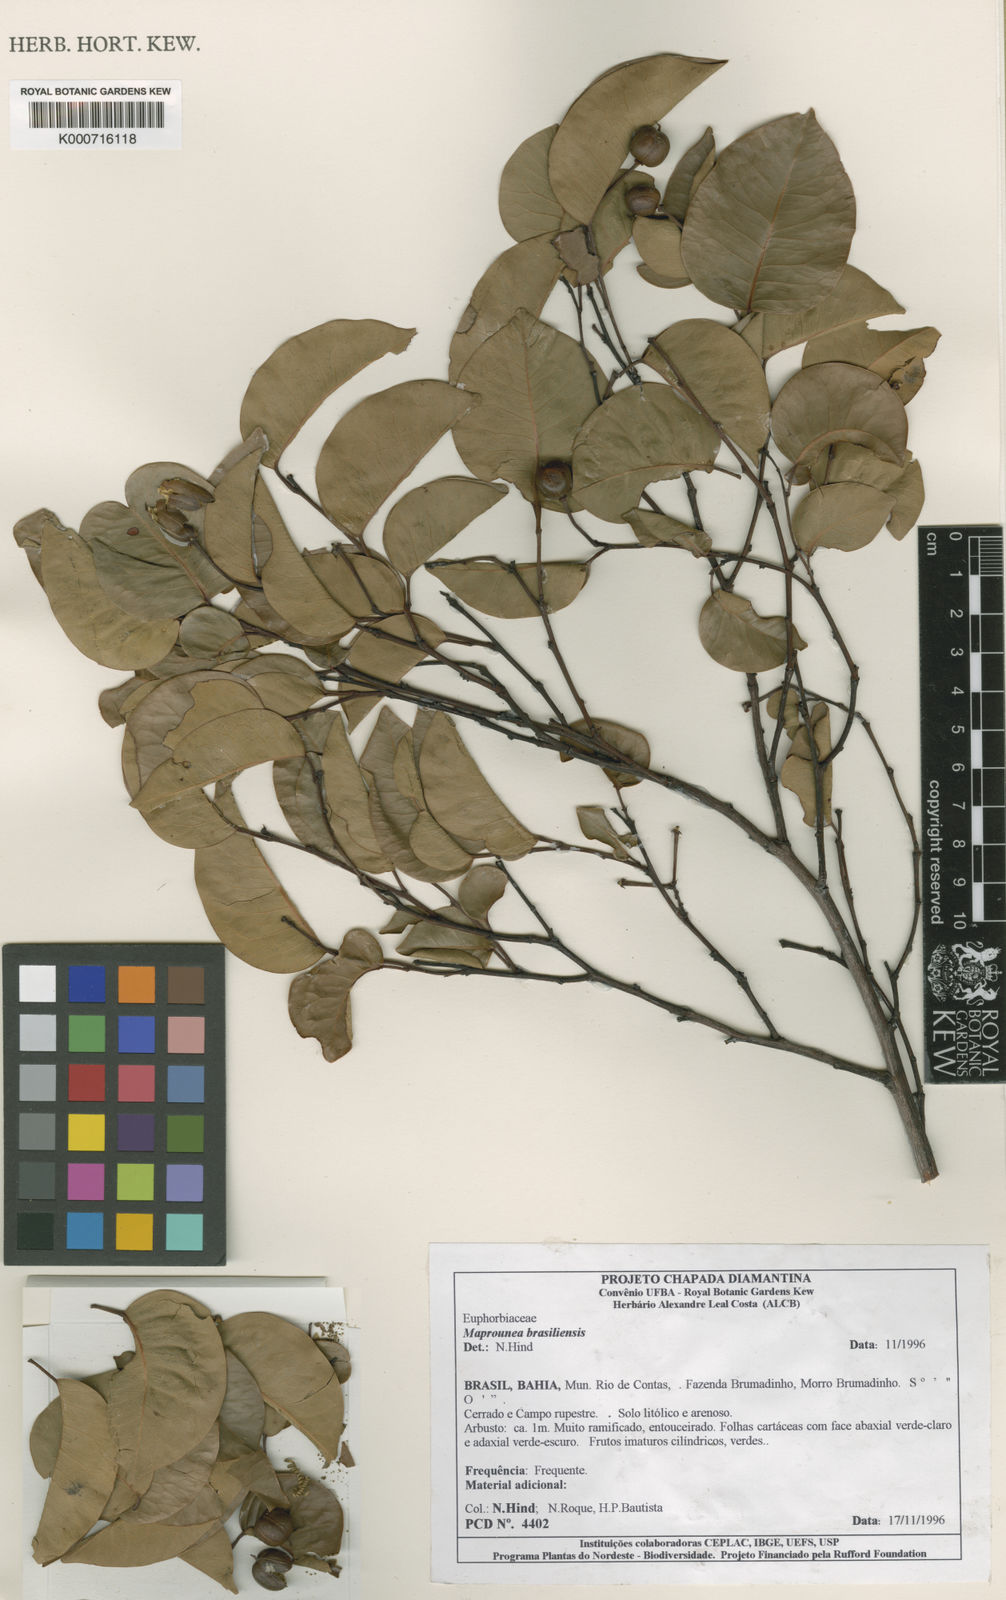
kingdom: Plantae
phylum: Tracheophyta
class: Magnoliopsida
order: Malpighiales
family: Euphorbiaceae
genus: Maprounea
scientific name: Maprounea brasiliensis
